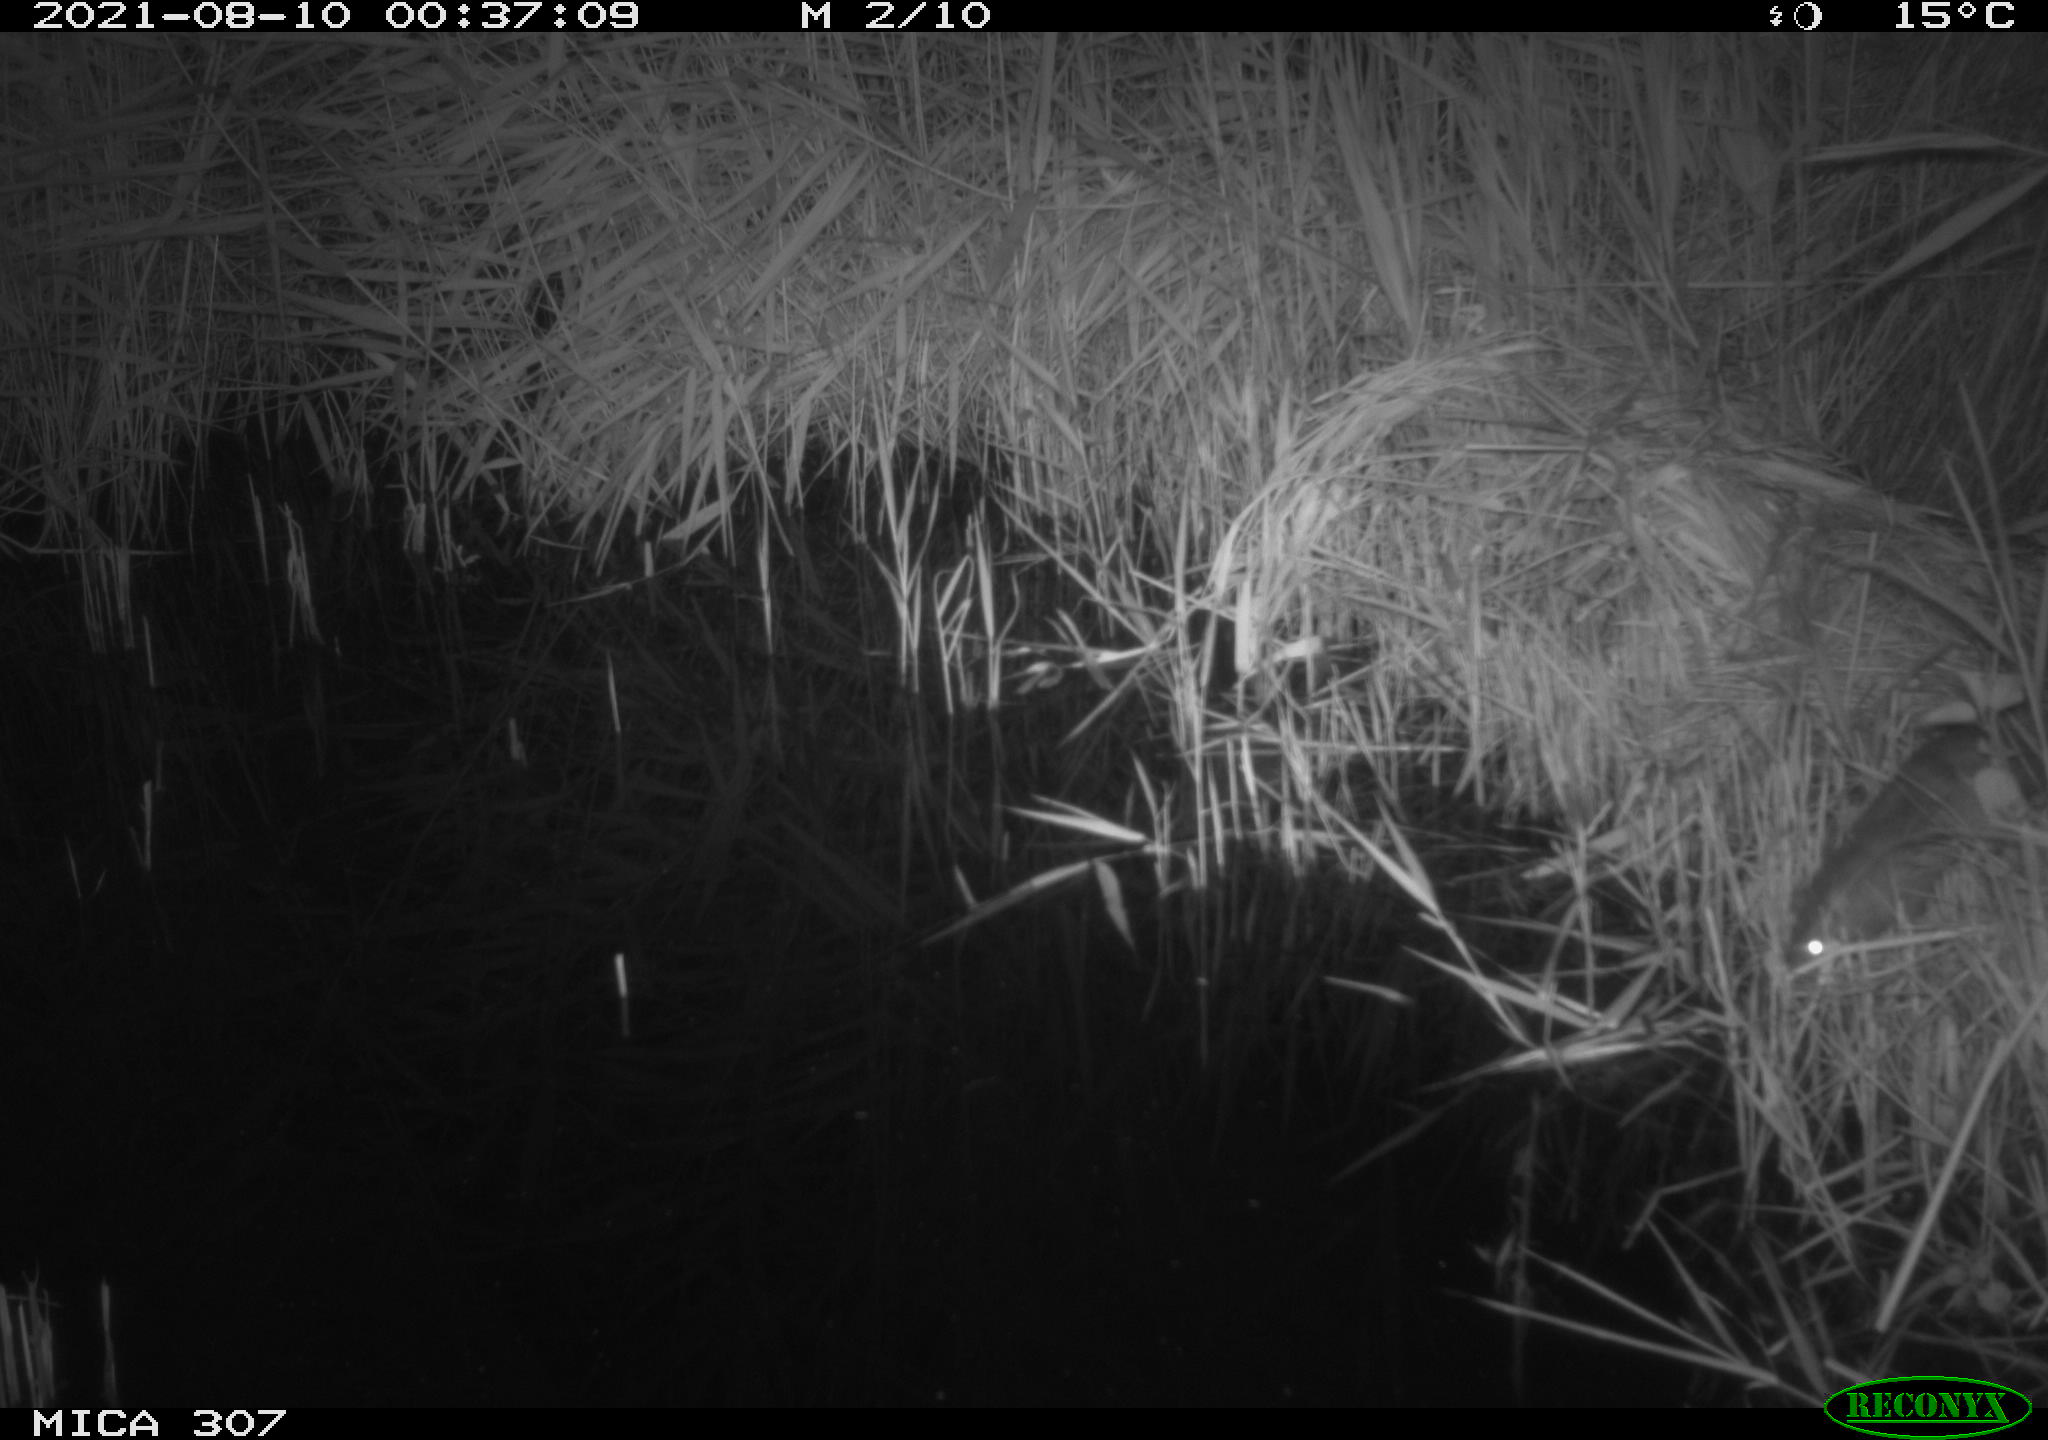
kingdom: Animalia
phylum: Chordata
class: Mammalia
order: Rodentia
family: Muridae
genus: Rattus
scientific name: Rattus norvegicus
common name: Brown rat
